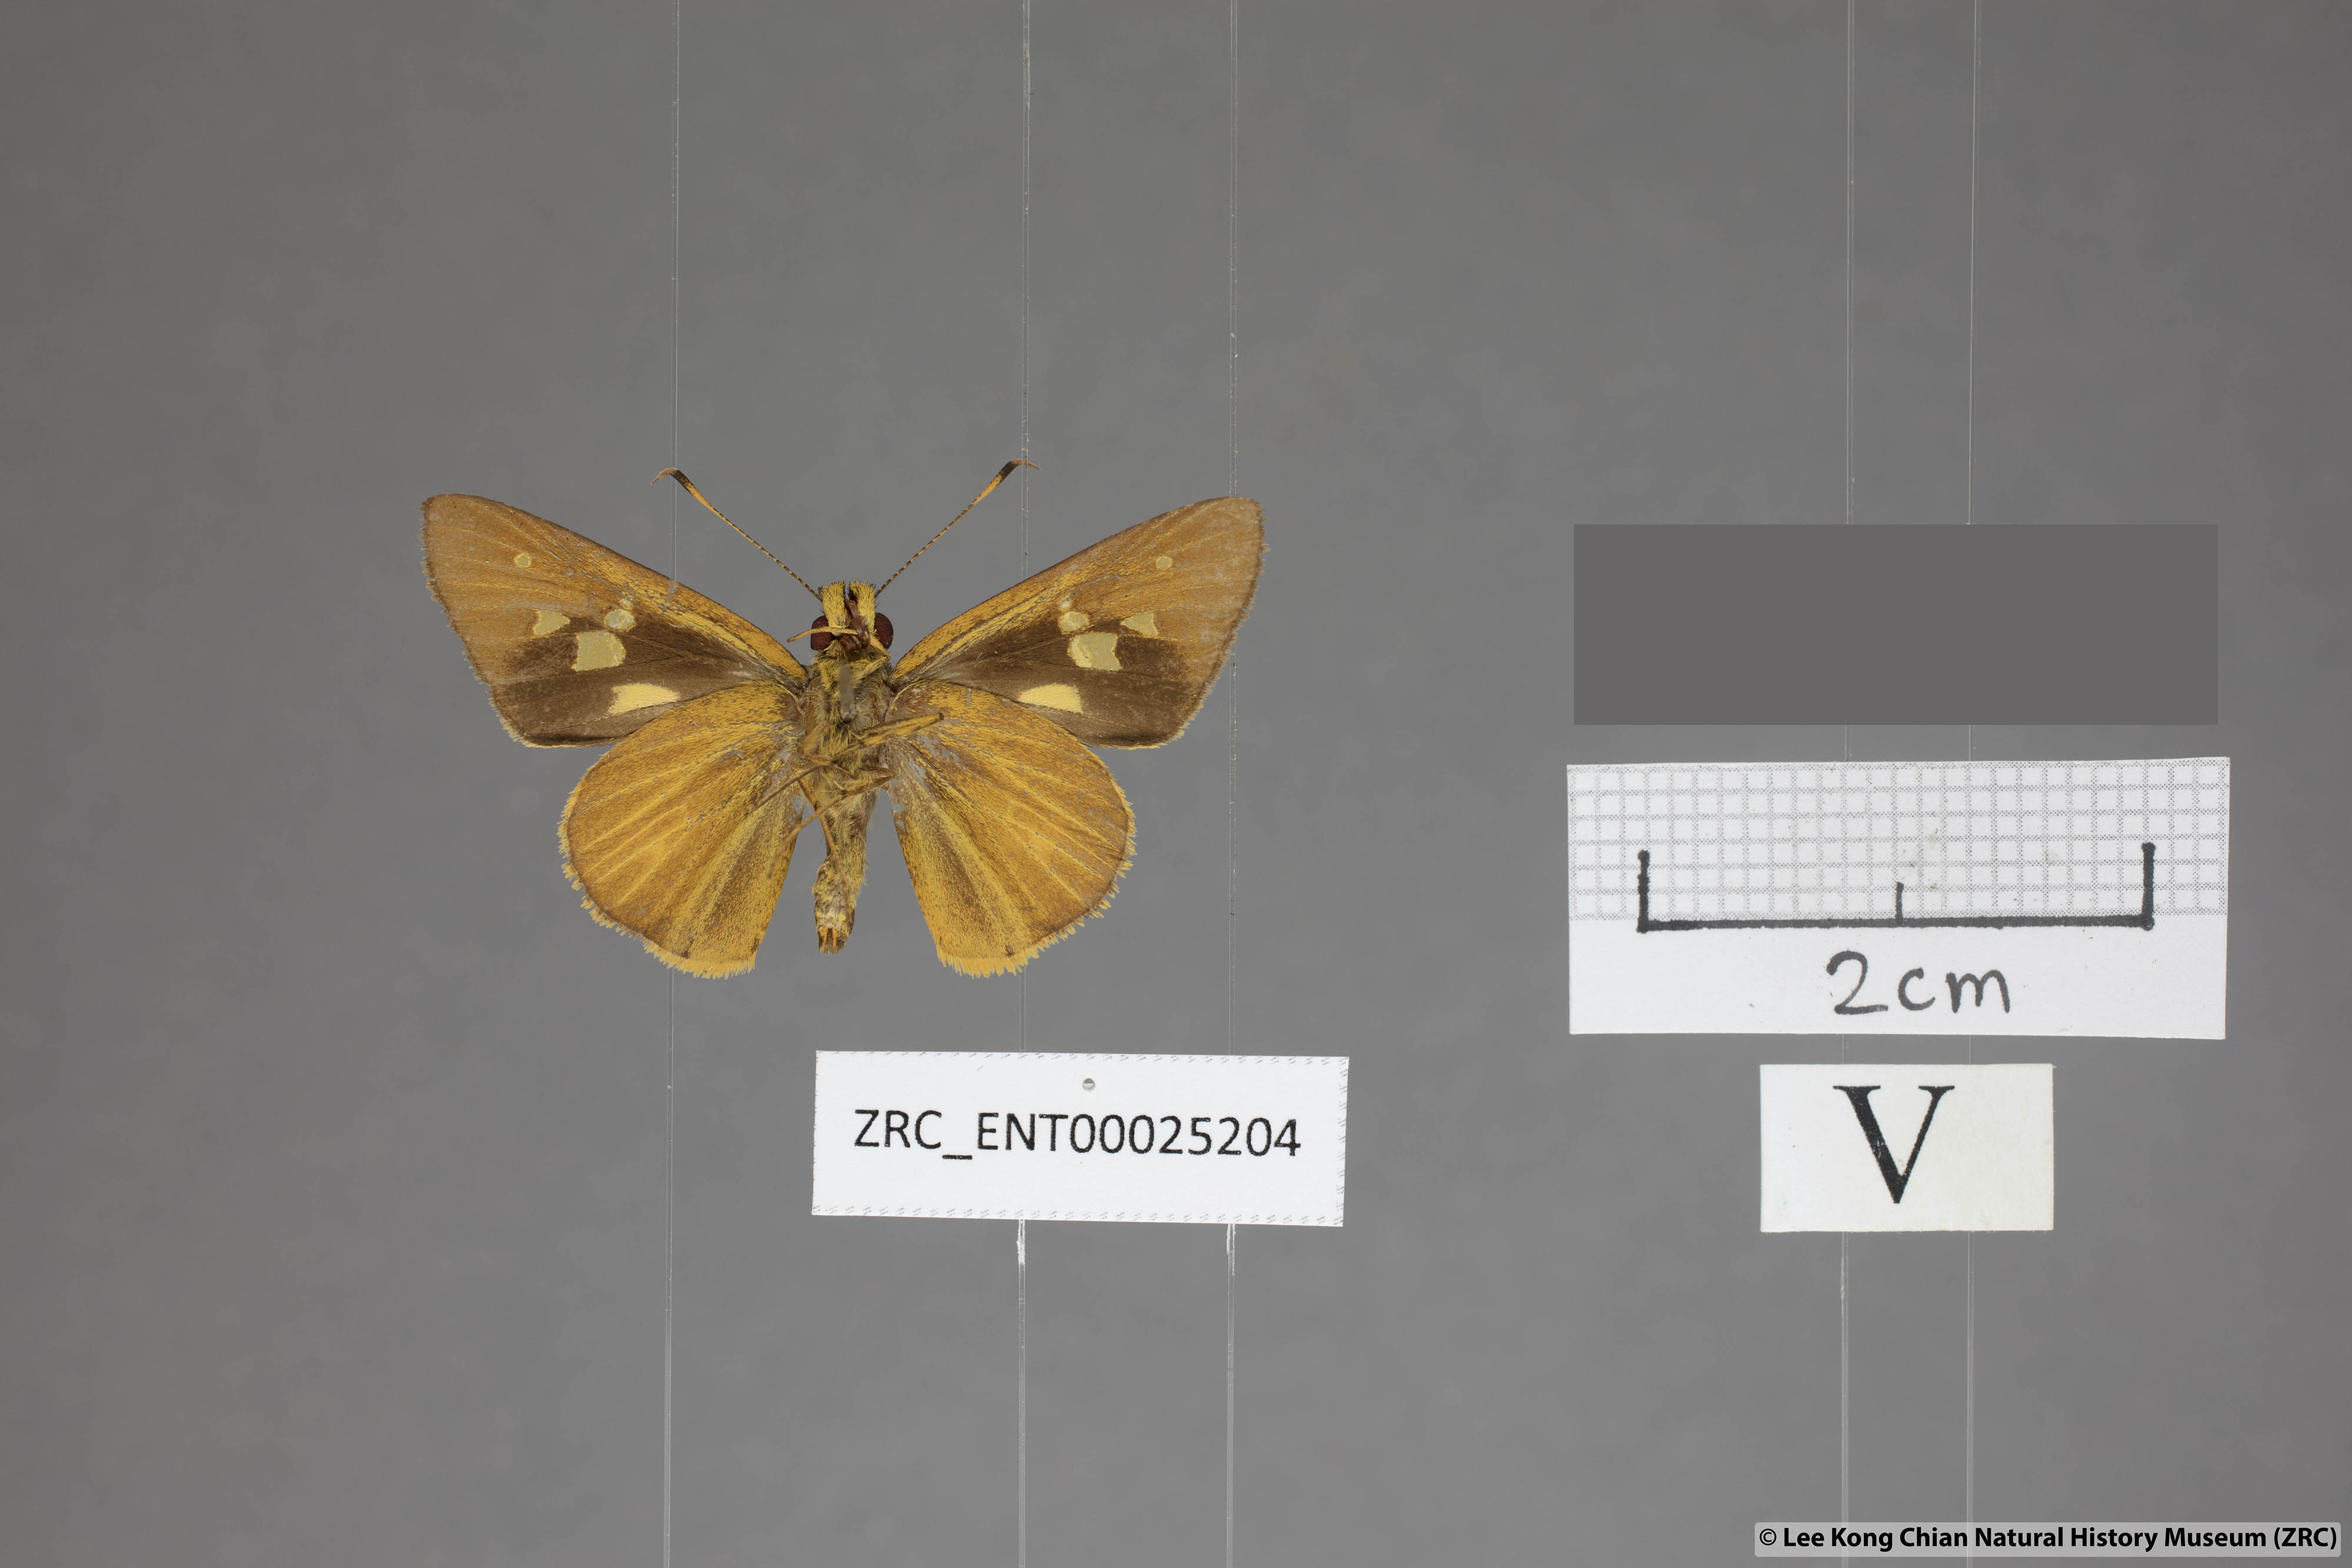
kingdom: Animalia
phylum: Arthropoda
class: Insecta
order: Lepidoptera
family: Hesperiidae
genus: Xanthoneura
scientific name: Xanthoneura corissa
